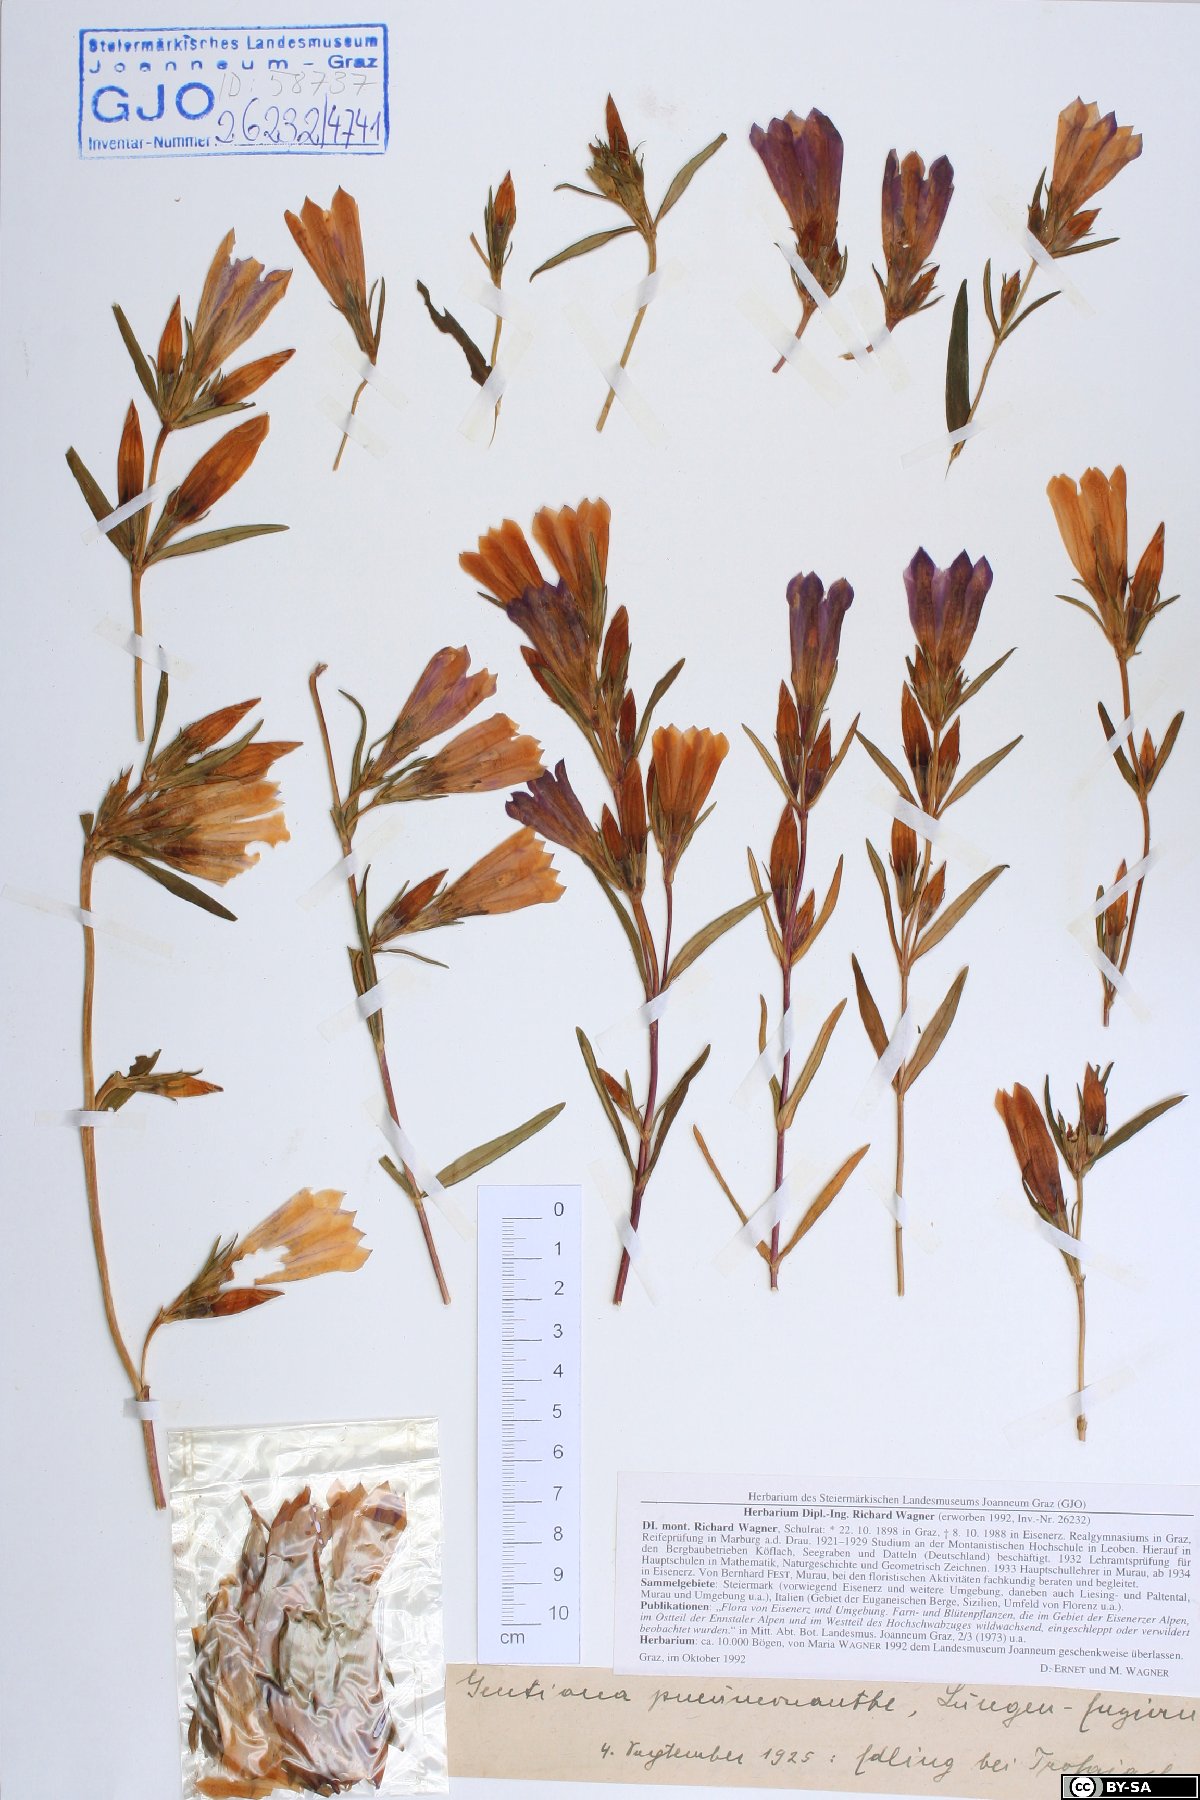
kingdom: Plantae
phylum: Tracheophyta
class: Magnoliopsida
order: Gentianales
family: Gentianaceae
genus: Gentiana
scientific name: Gentiana pneumonanthe
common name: Marsh gentian
